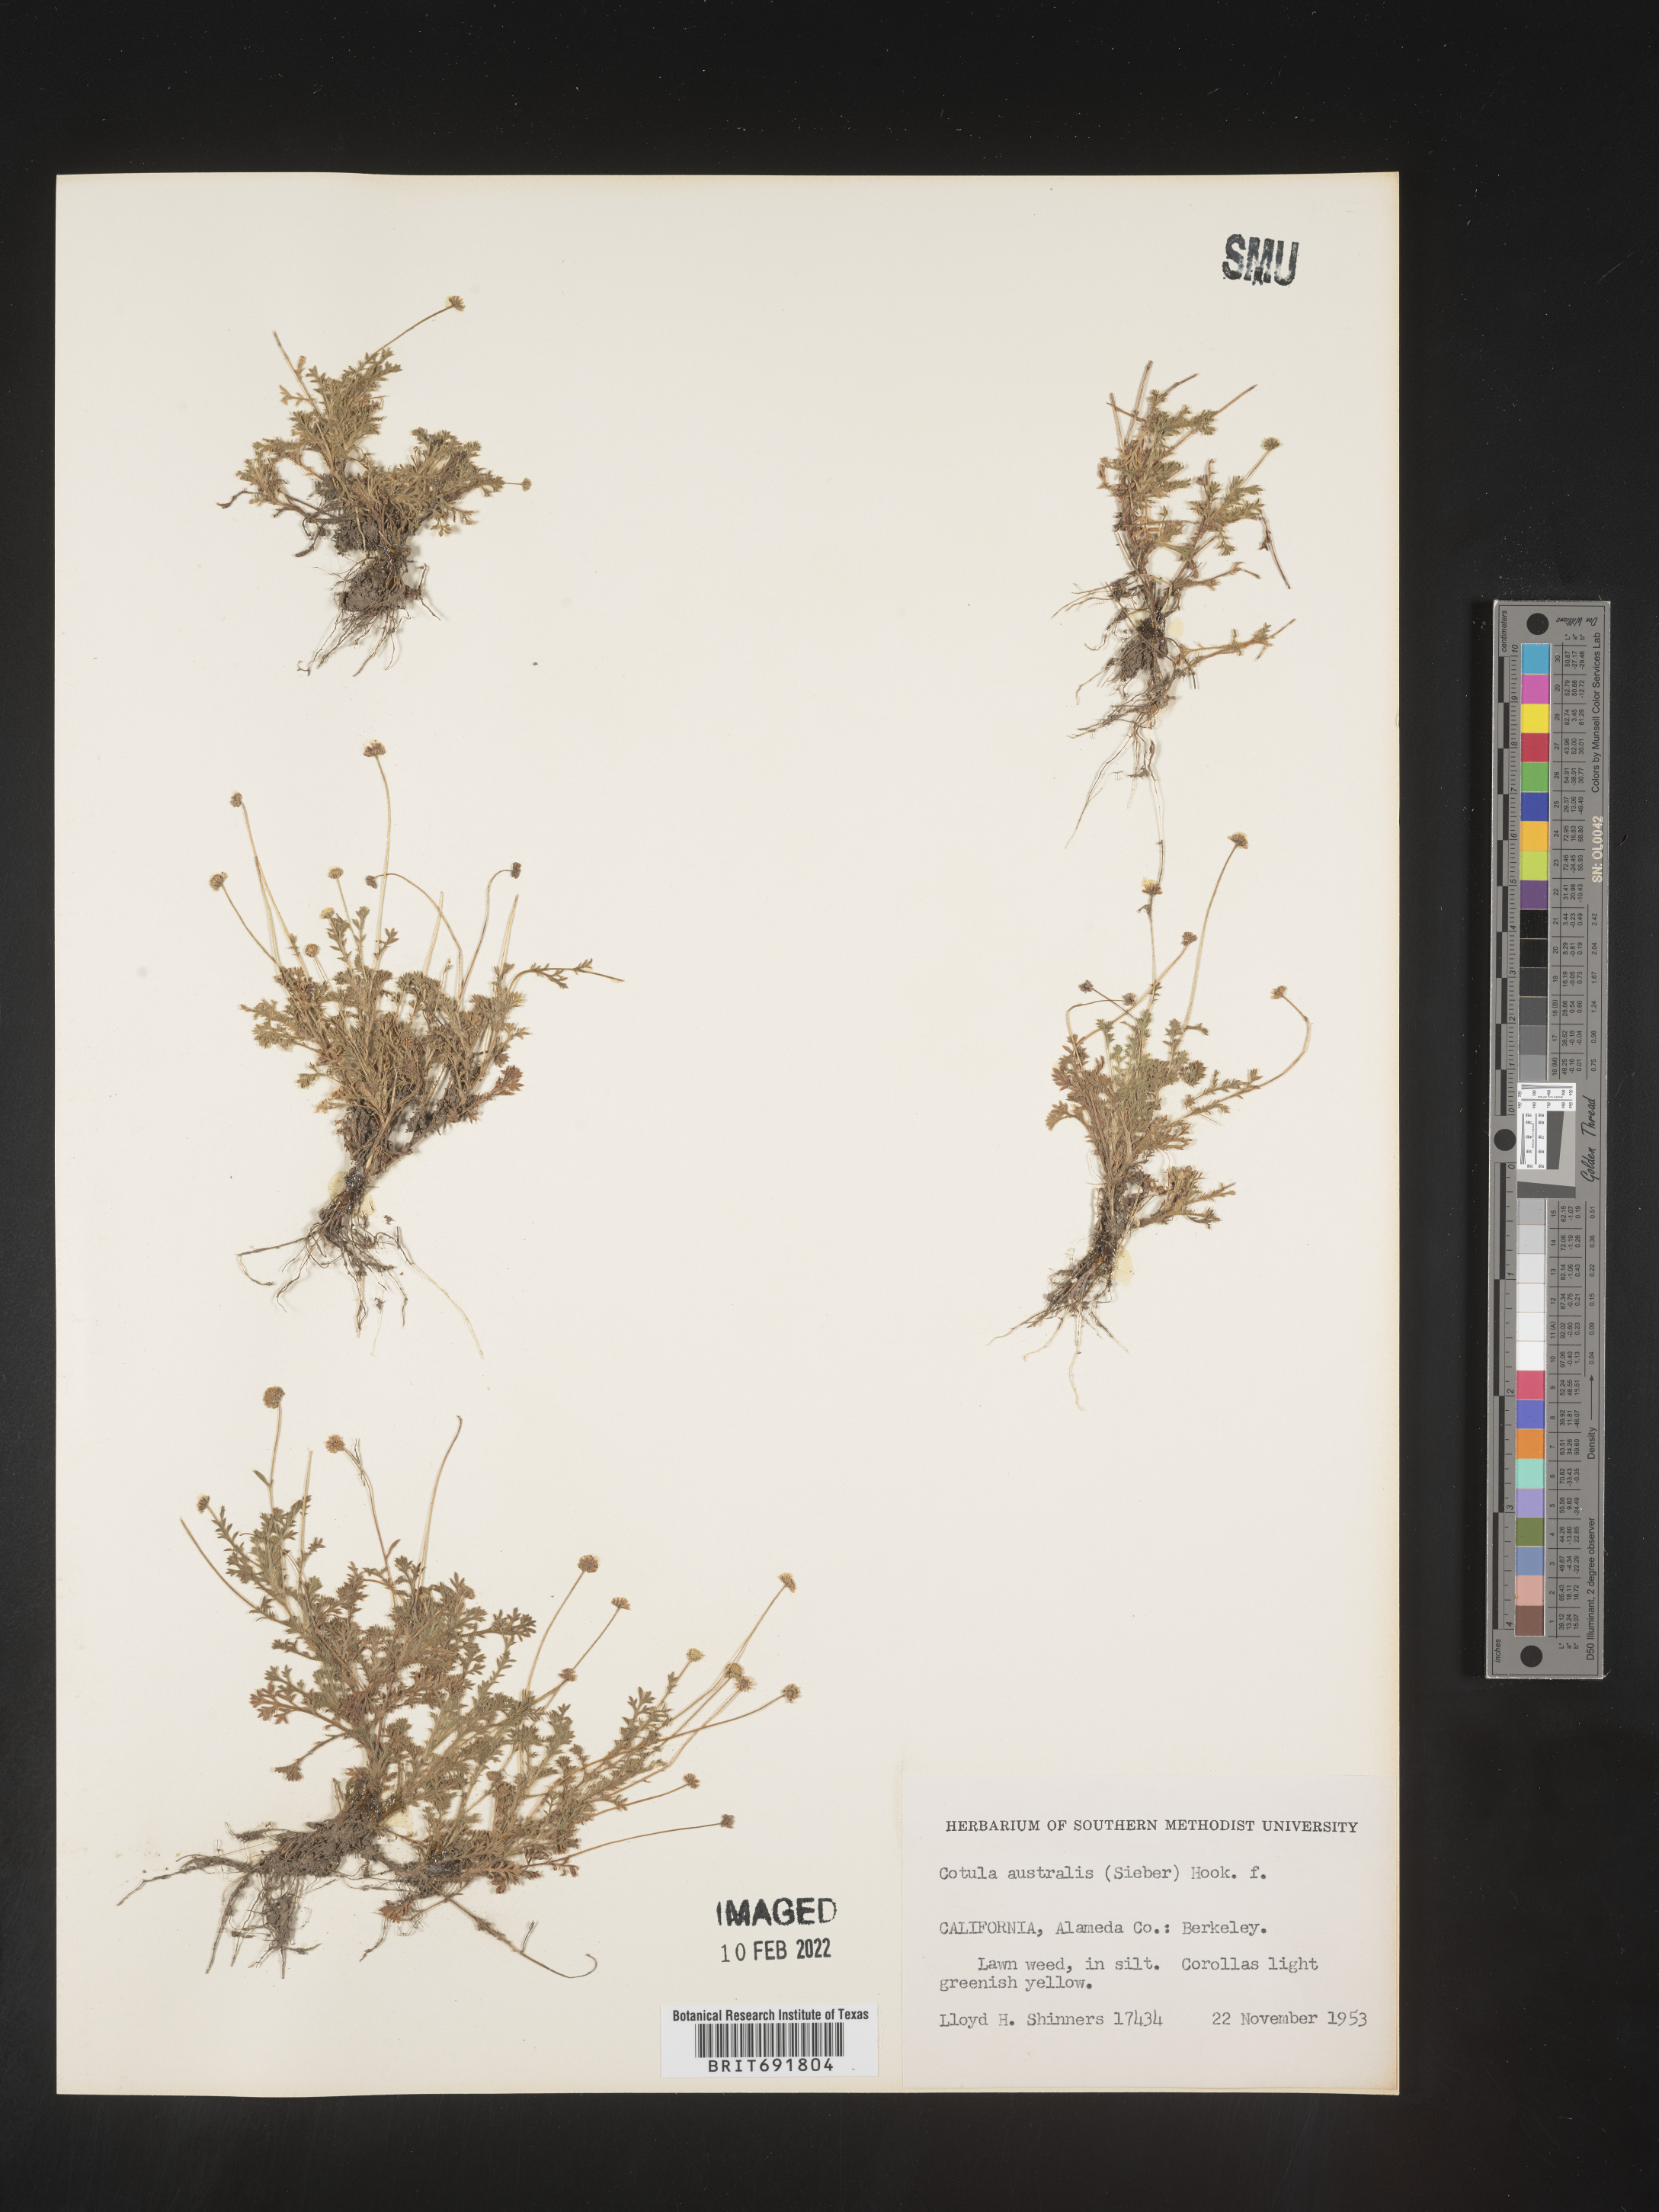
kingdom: Plantae
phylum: Tracheophyta
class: Magnoliopsida
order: Asterales
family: Asteraceae
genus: Cotula
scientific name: Cotula
